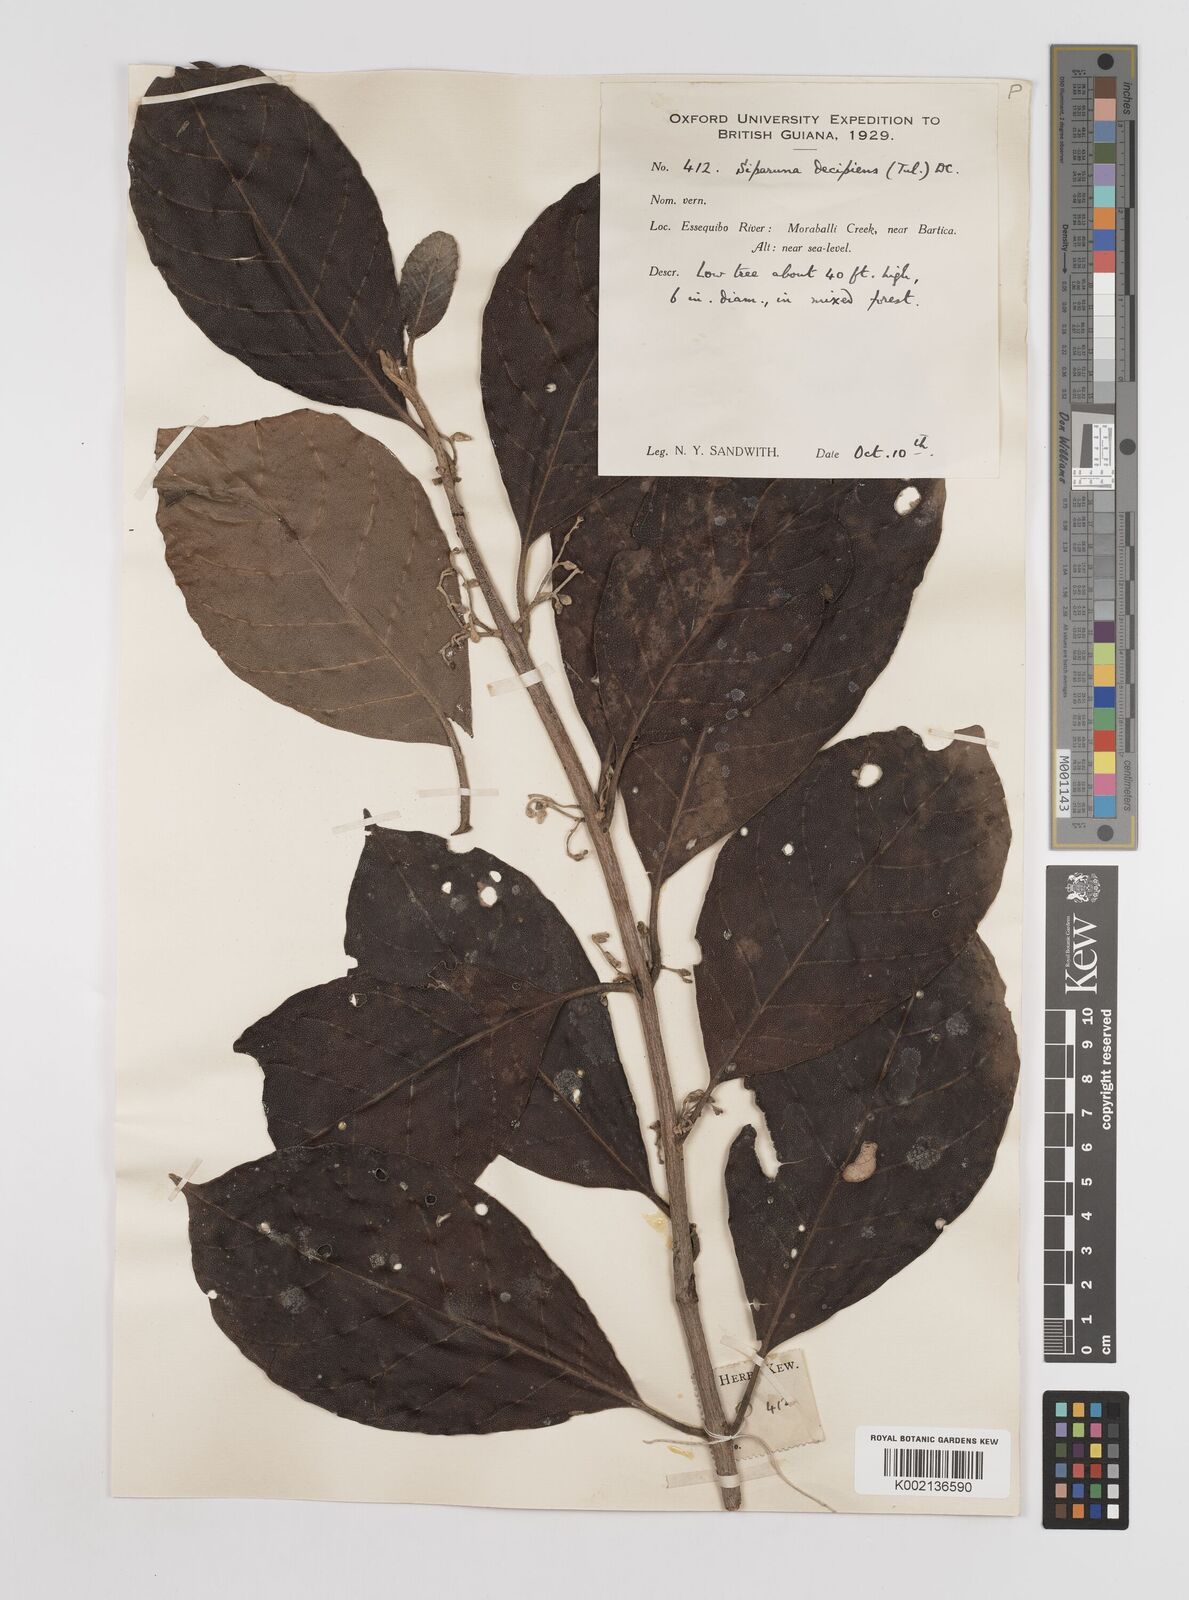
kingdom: Plantae
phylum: Tracheophyta
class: Magnoliopsida
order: Laurales
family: Siparunaceae
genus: Siparuna
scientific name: Siparuna decipiens
